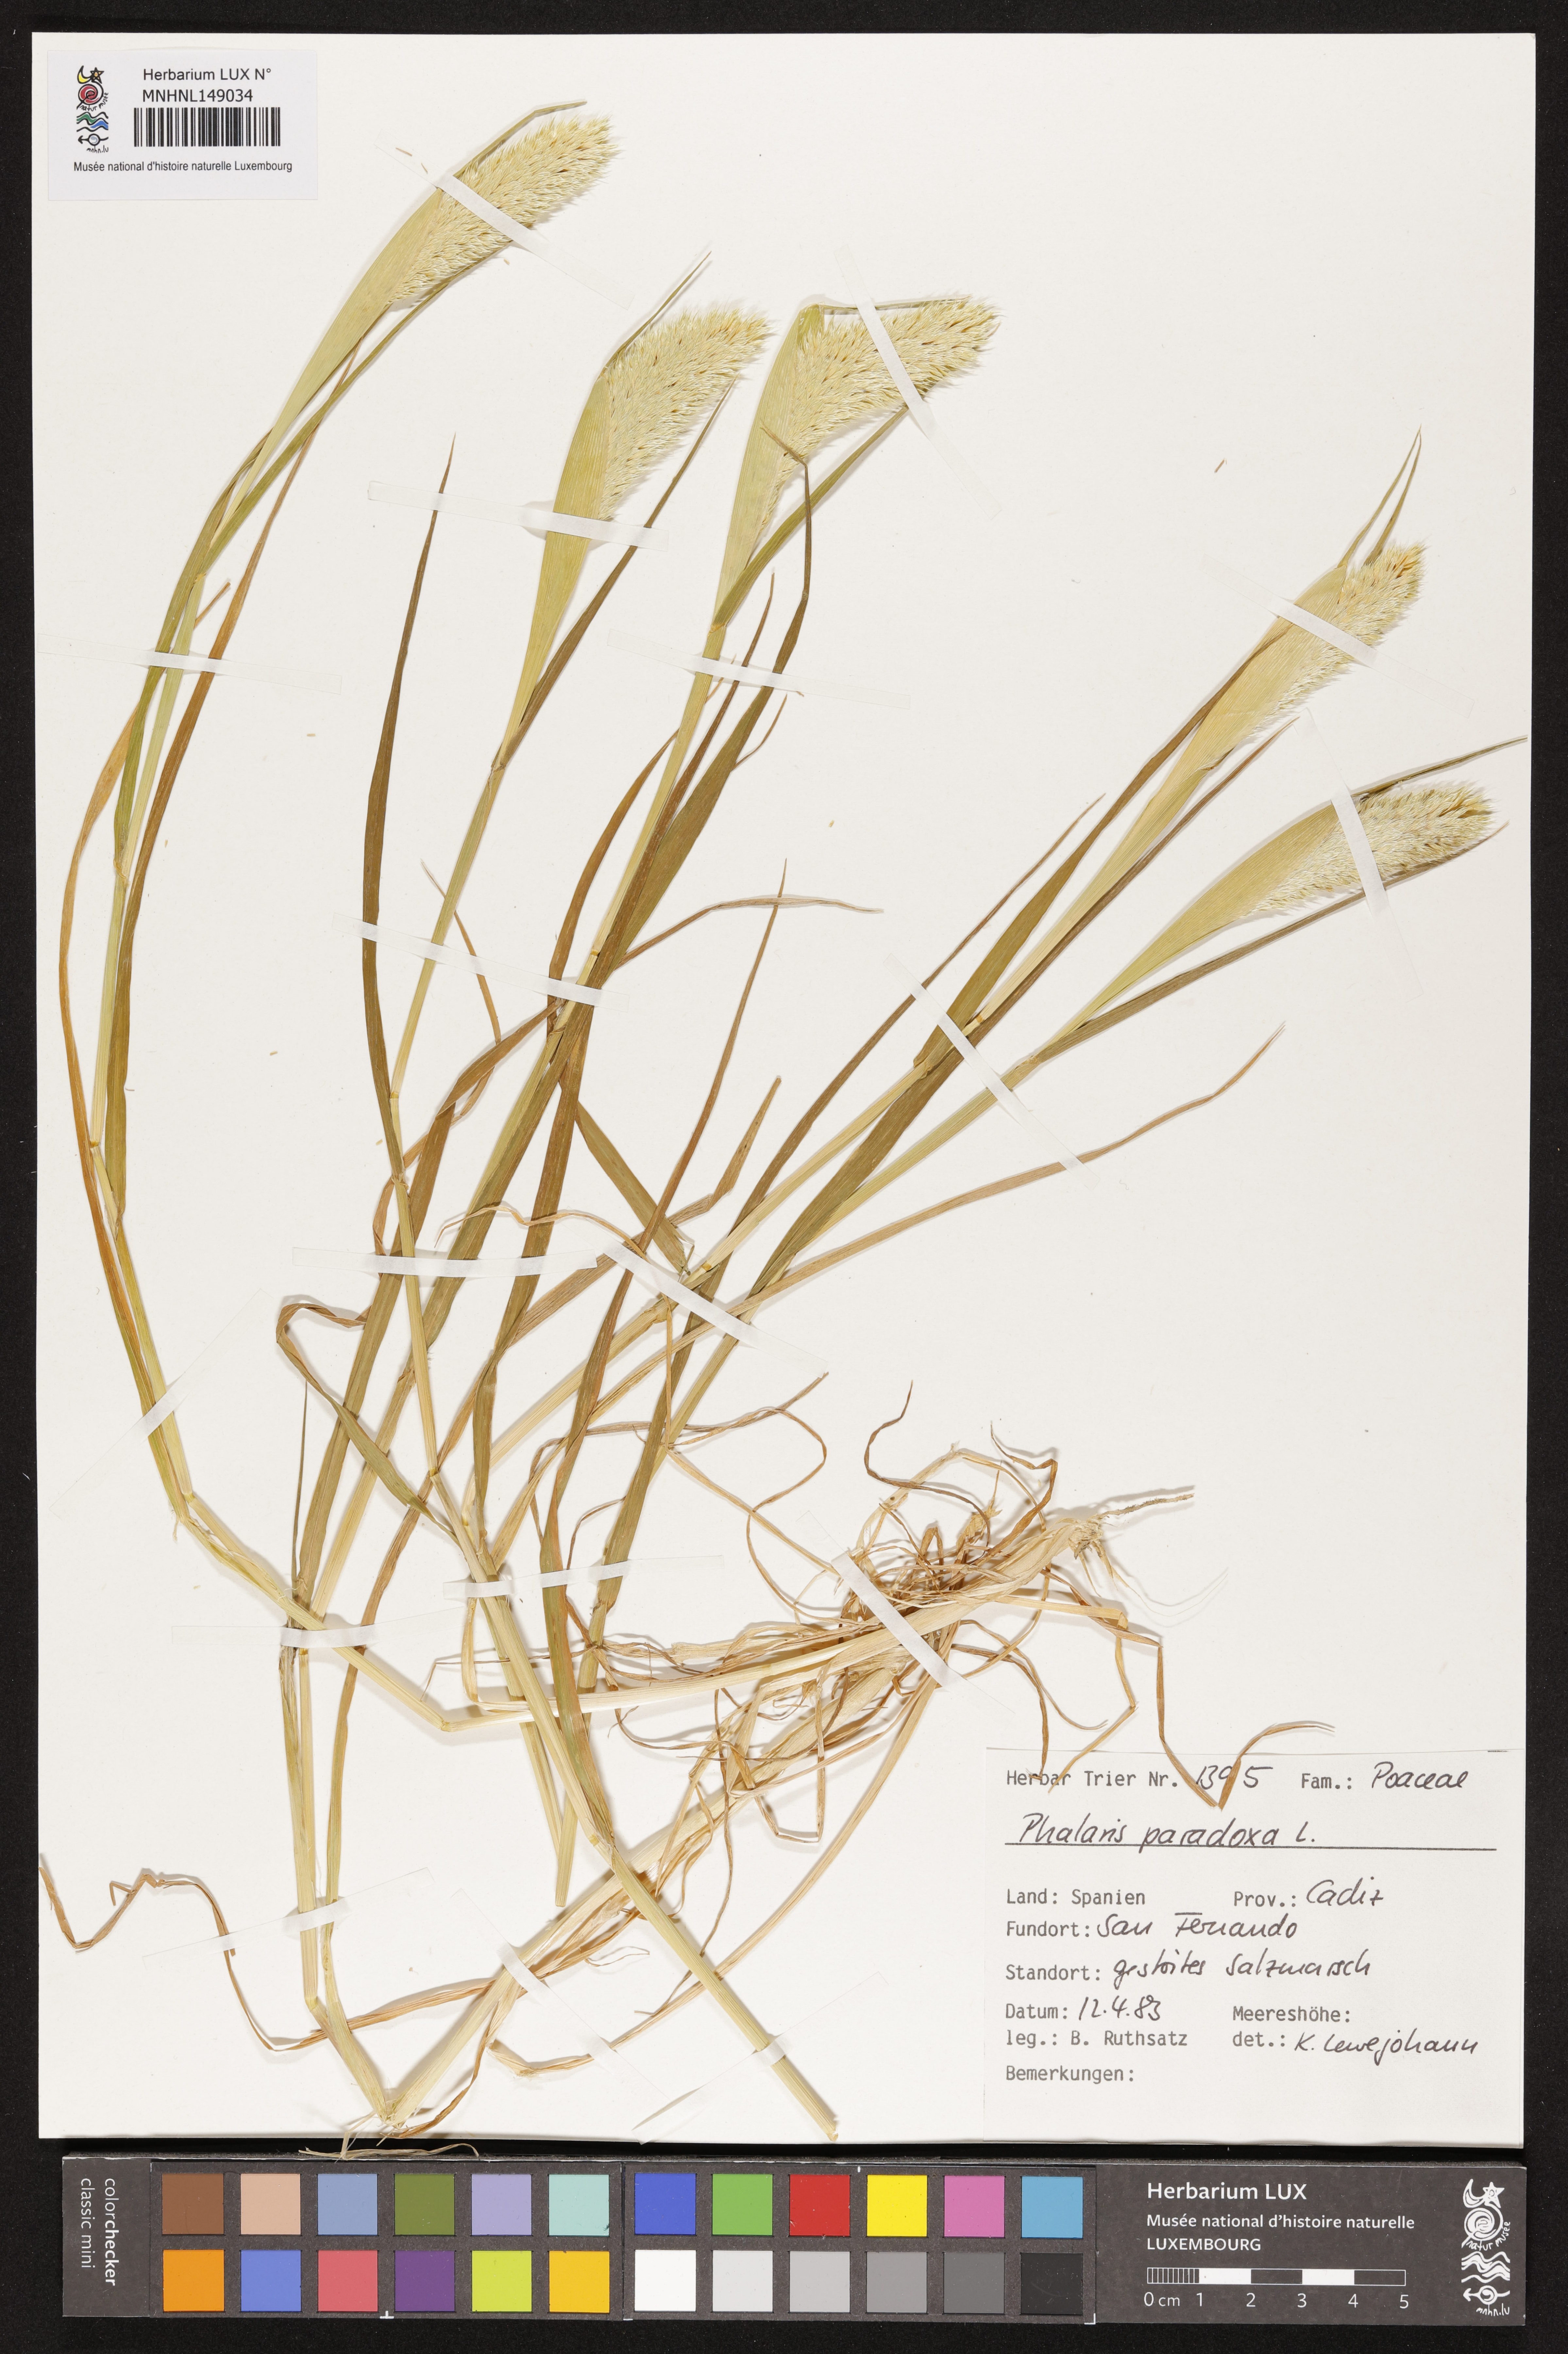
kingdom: Plantae
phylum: Tracheophyta
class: Liliopsida
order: Poales
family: Poaceae
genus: Phalaris
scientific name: Phalaris paradoxa
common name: Awned canary-grass
